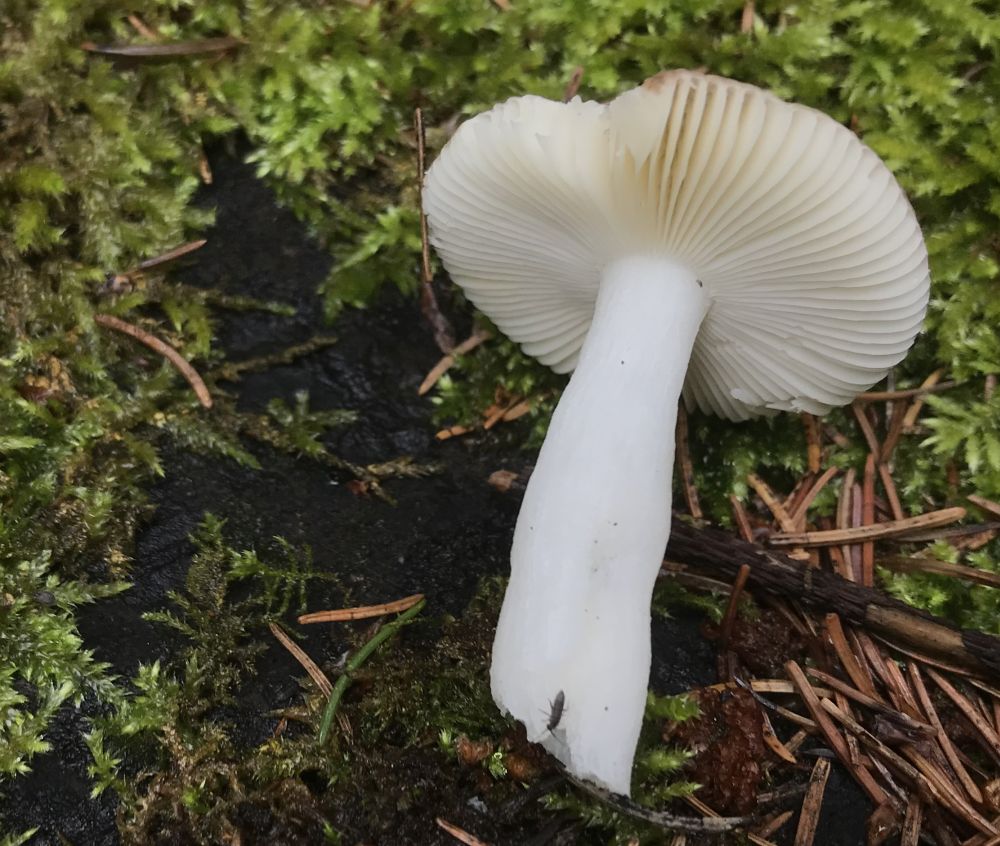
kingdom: Fungi
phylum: Basidiomycota
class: Agaricomycetes
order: Russulales
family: Russulaceae
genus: Russula
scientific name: Russula nauseosa
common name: spinkel skørhat
